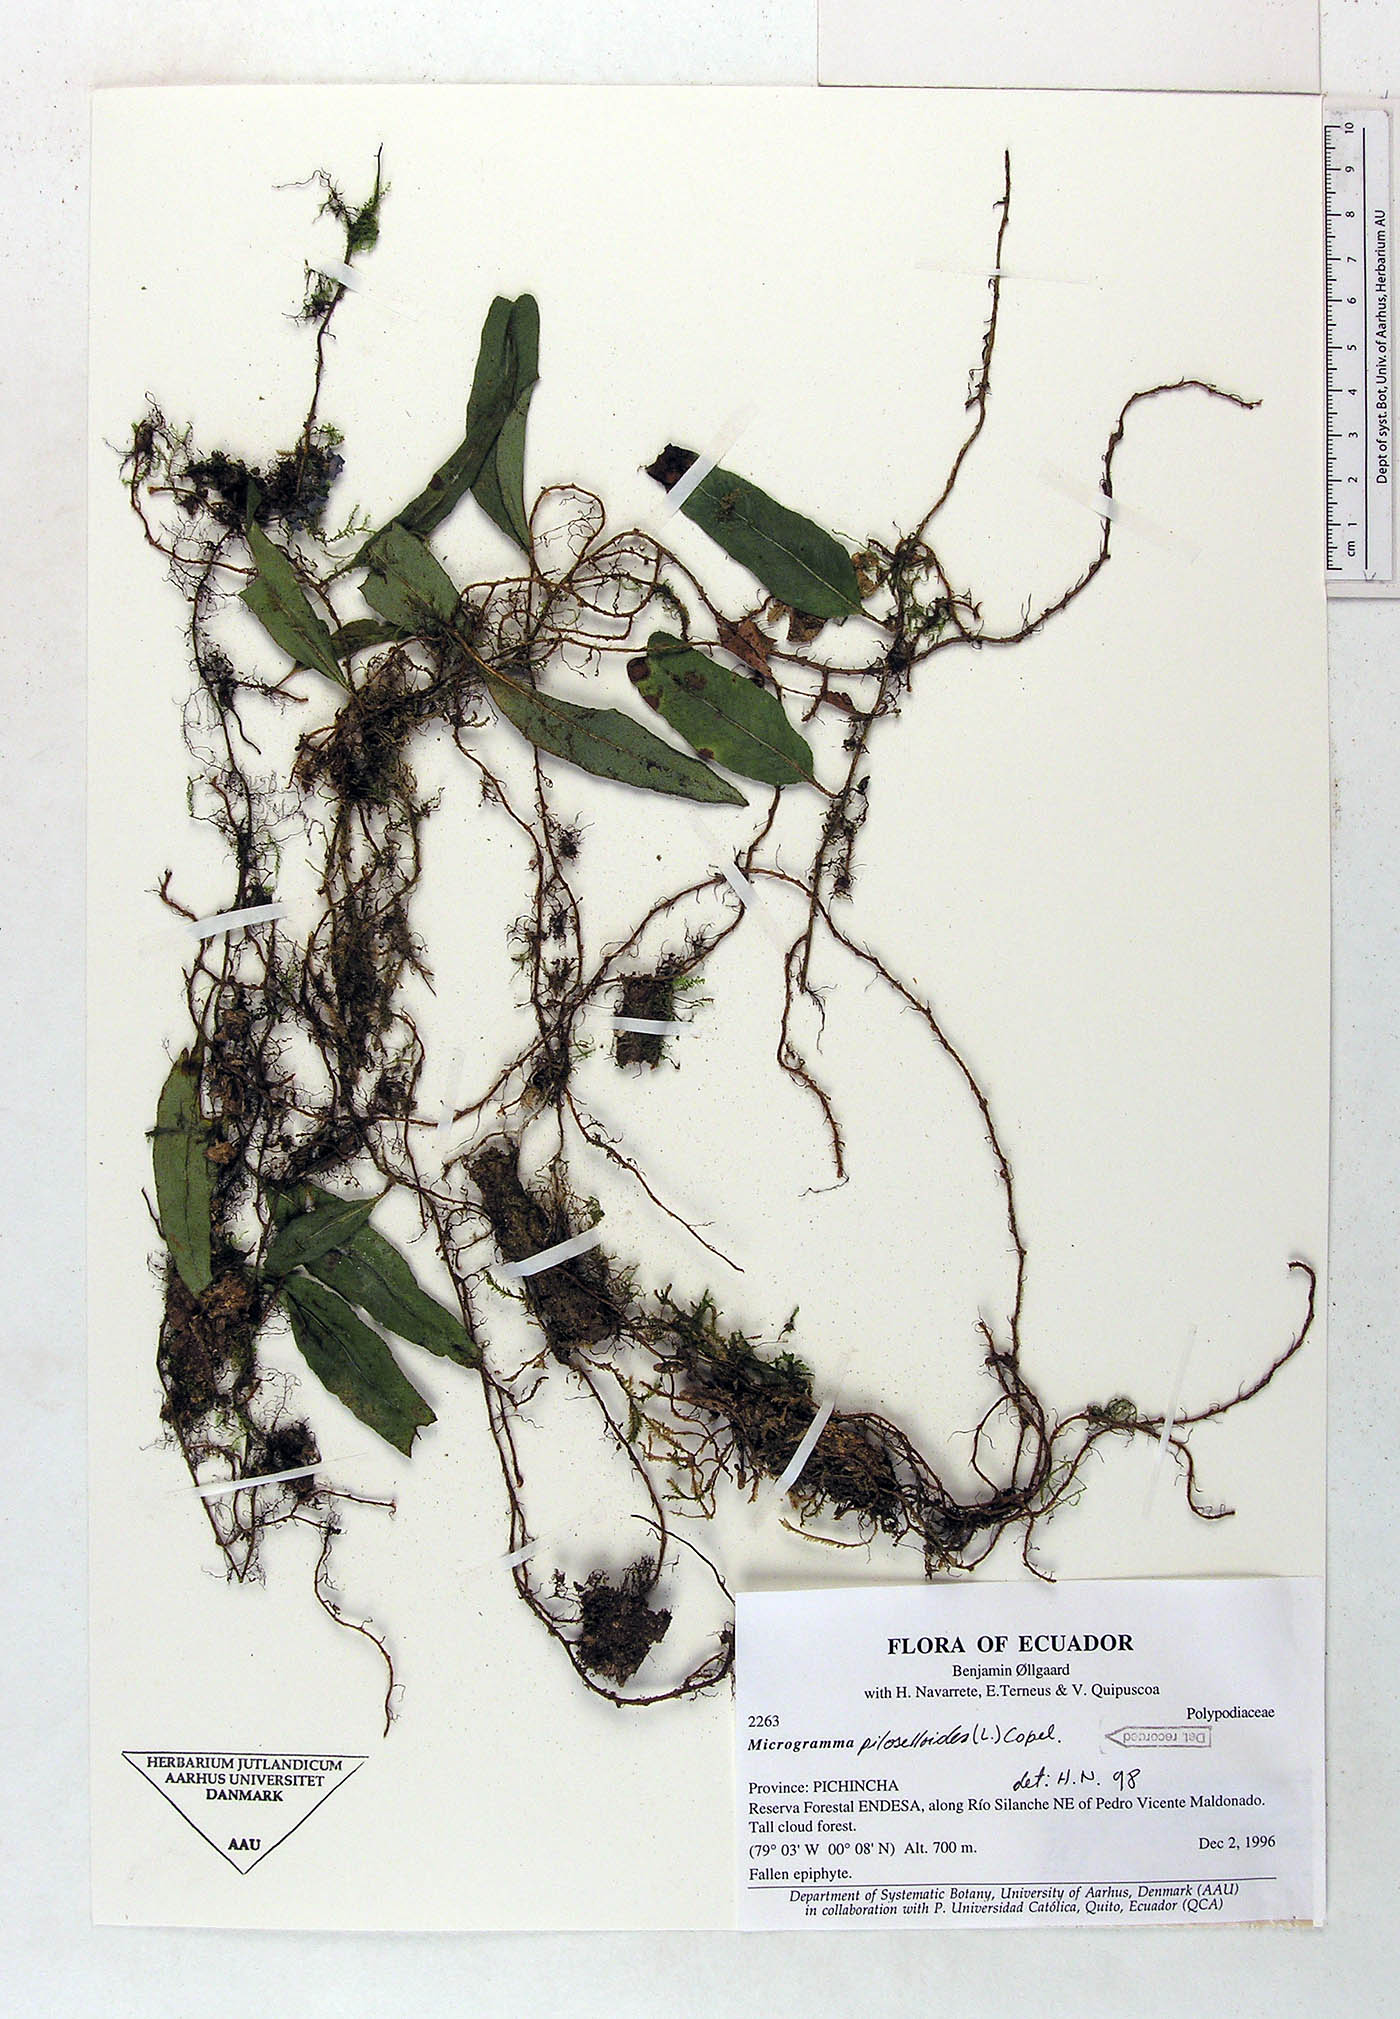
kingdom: Plantae
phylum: Tracheophyta
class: Polypodiopsida
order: Polypodiales
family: Polypodiaceae
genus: Microgramma
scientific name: Microgramma piloselloides
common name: Hairy snakefern
